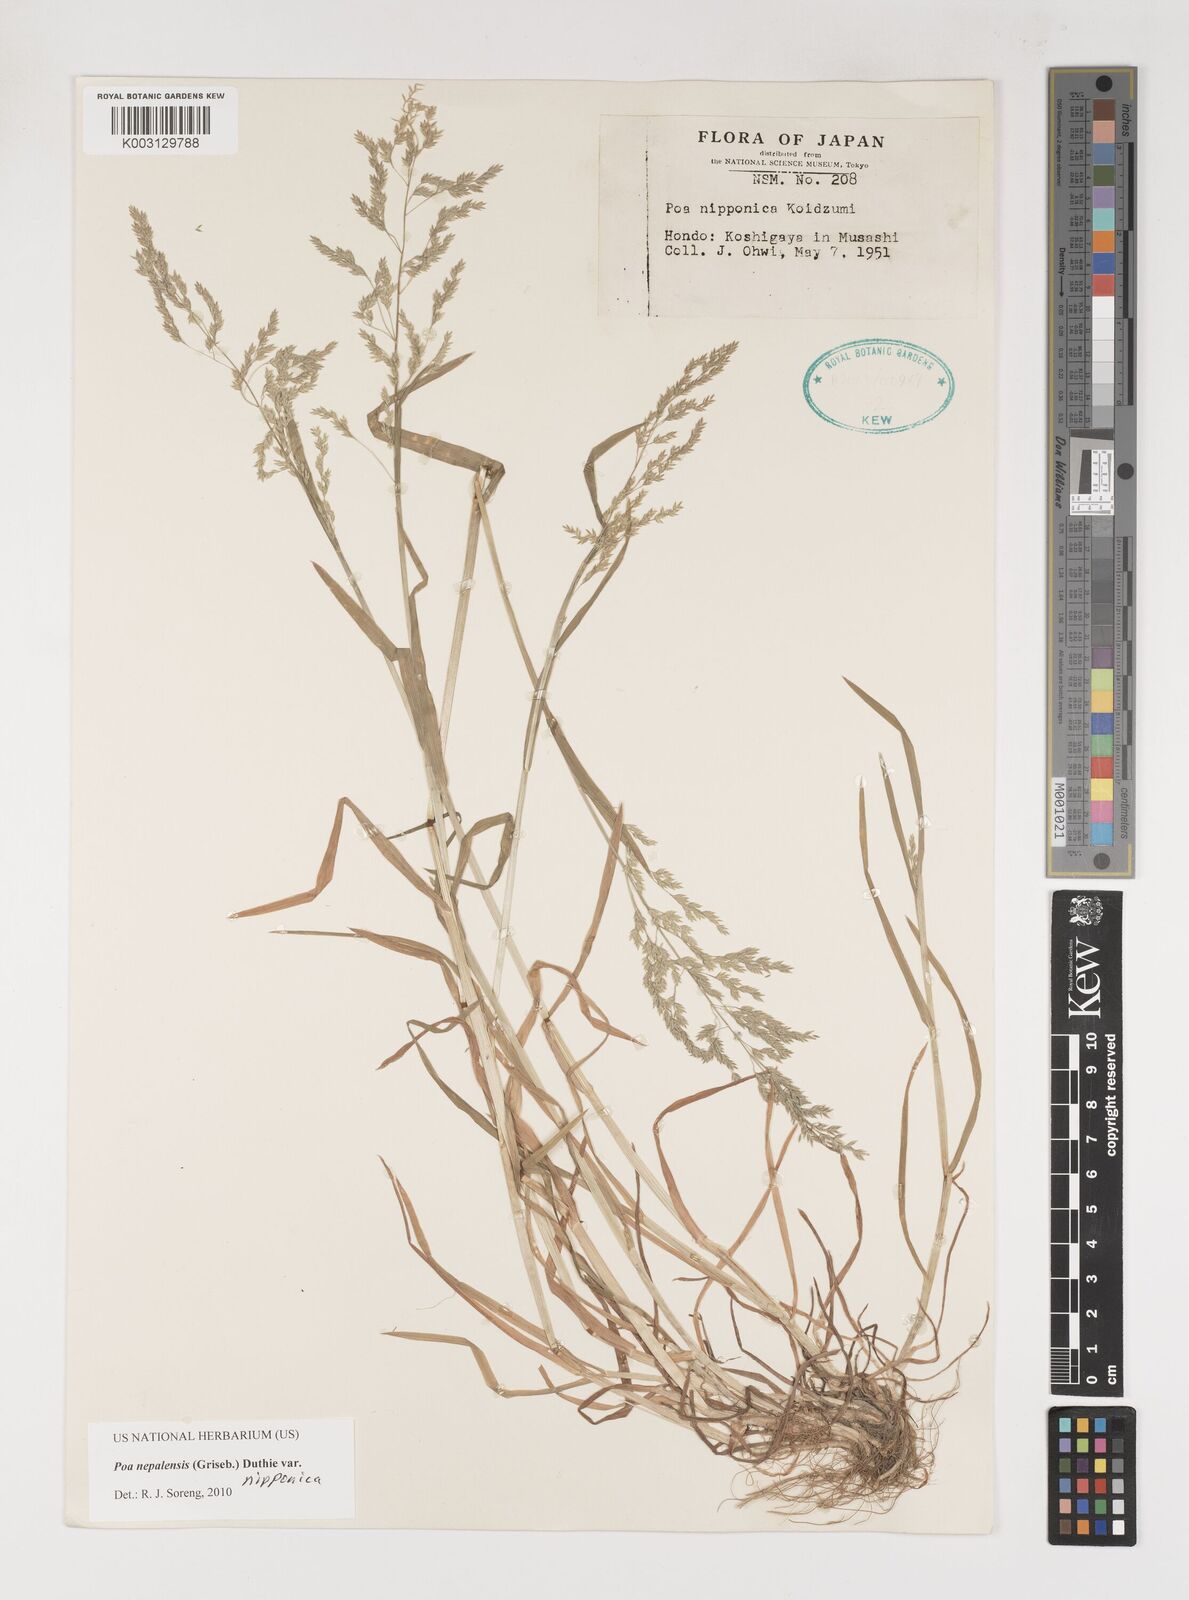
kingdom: Plantae
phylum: Tracheophyta
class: Liliopsida
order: Poales
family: Poaceae
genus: Poa
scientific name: Poa nepalensis
